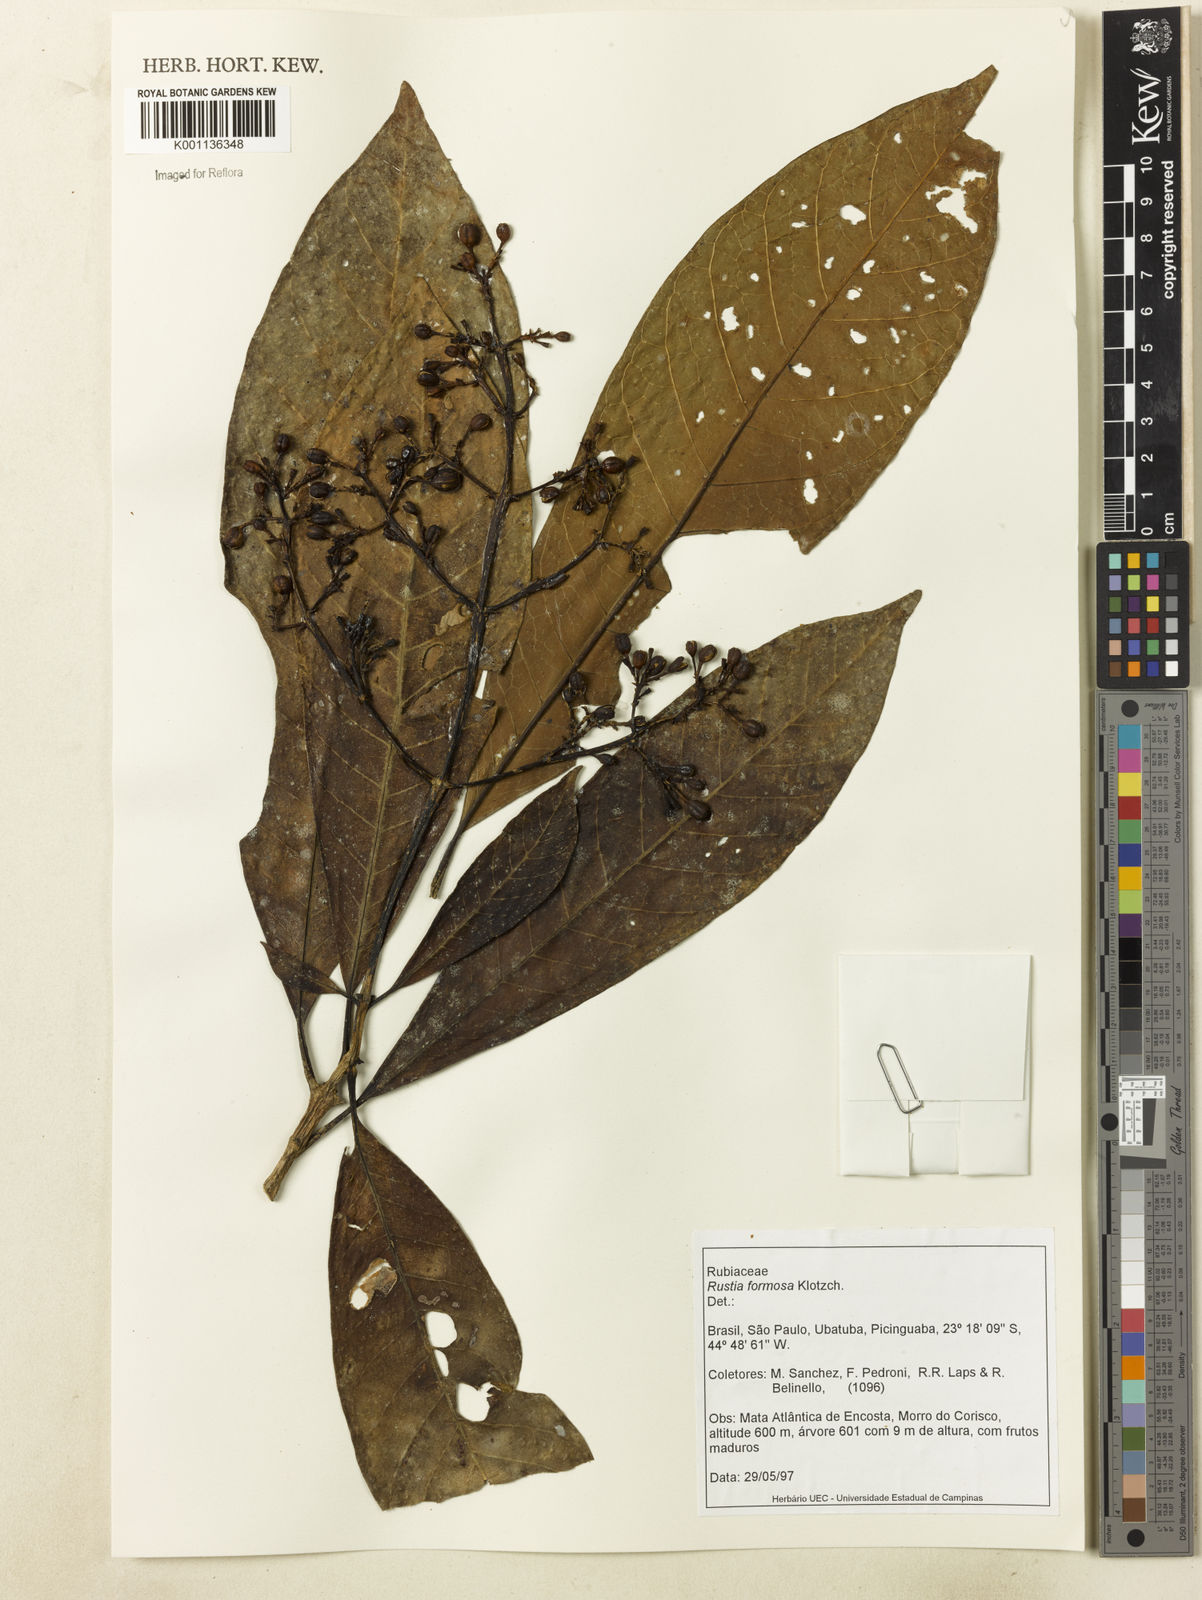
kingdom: Plantae
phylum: Tracheophyta
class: Magnoliopsida
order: Gentianales
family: Rubiaceae
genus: Rustia
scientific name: Rustia formosa
